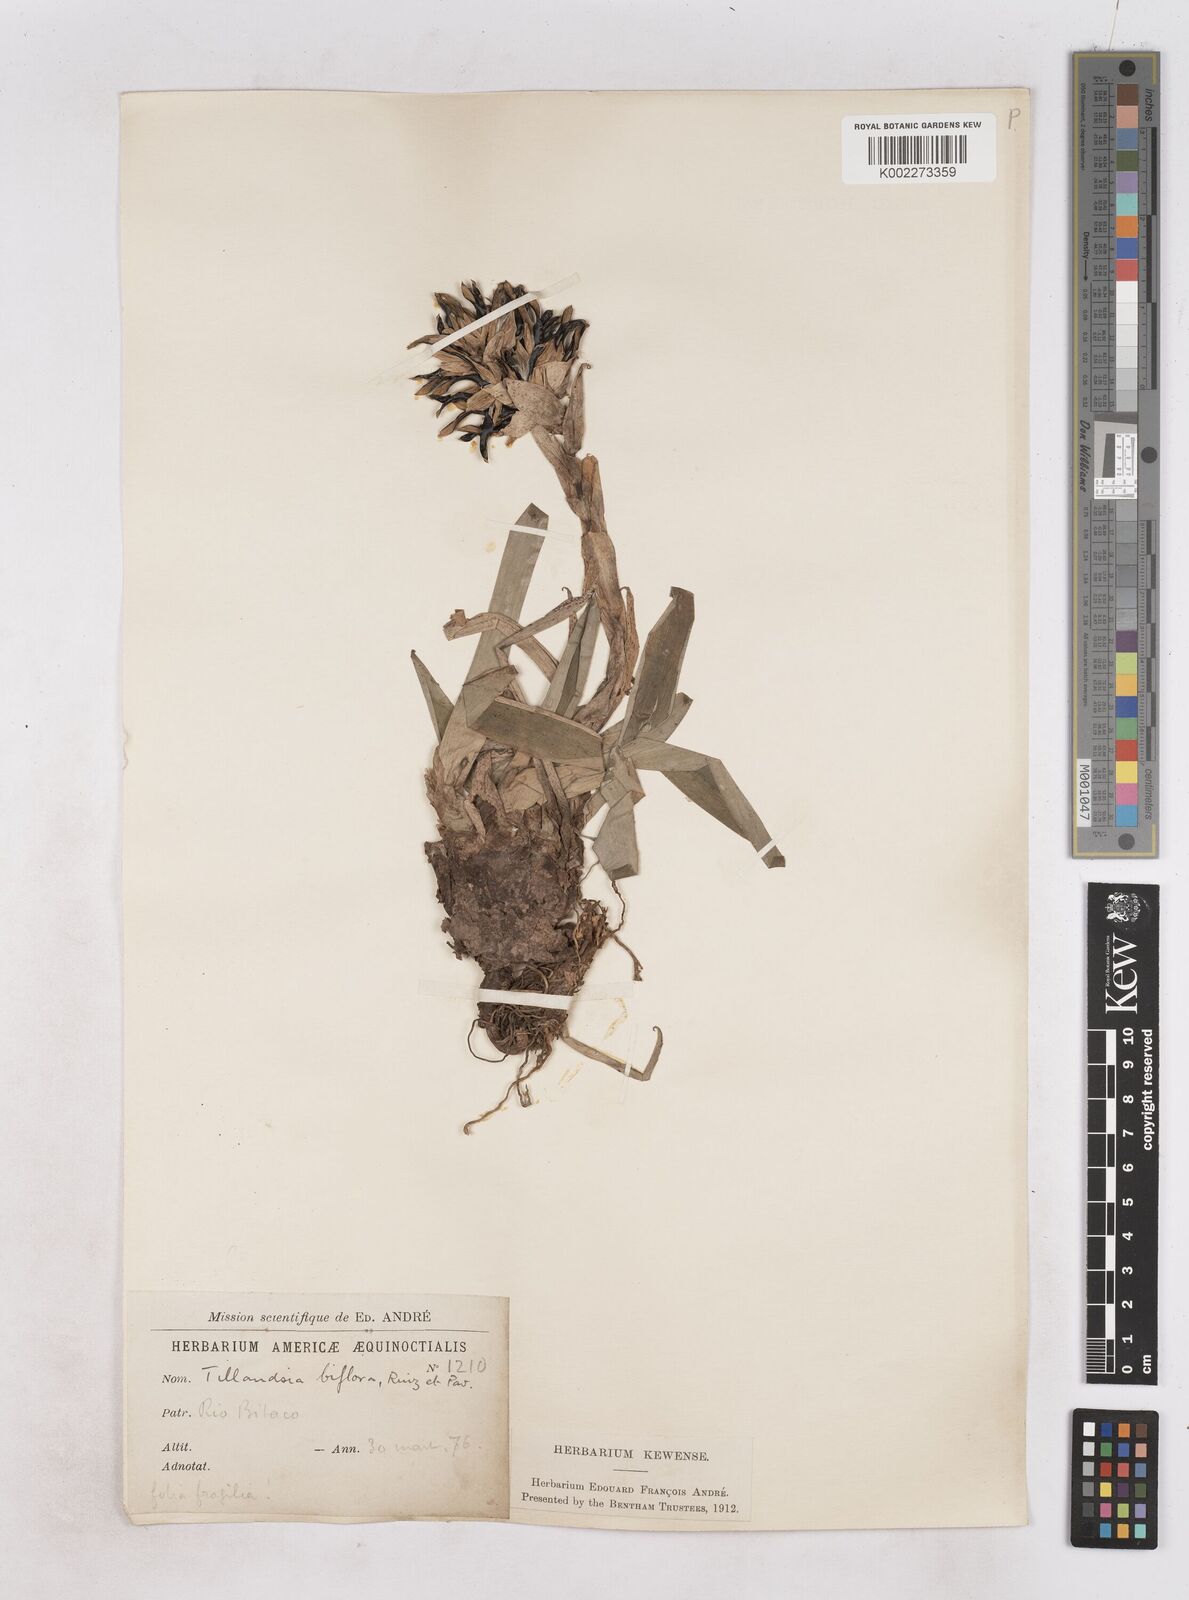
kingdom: Plantae
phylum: Tracheophyta
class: Liliopsida
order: Poales
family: Bromeliaceae
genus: Tillandsia
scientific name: Tillandsia biflora
